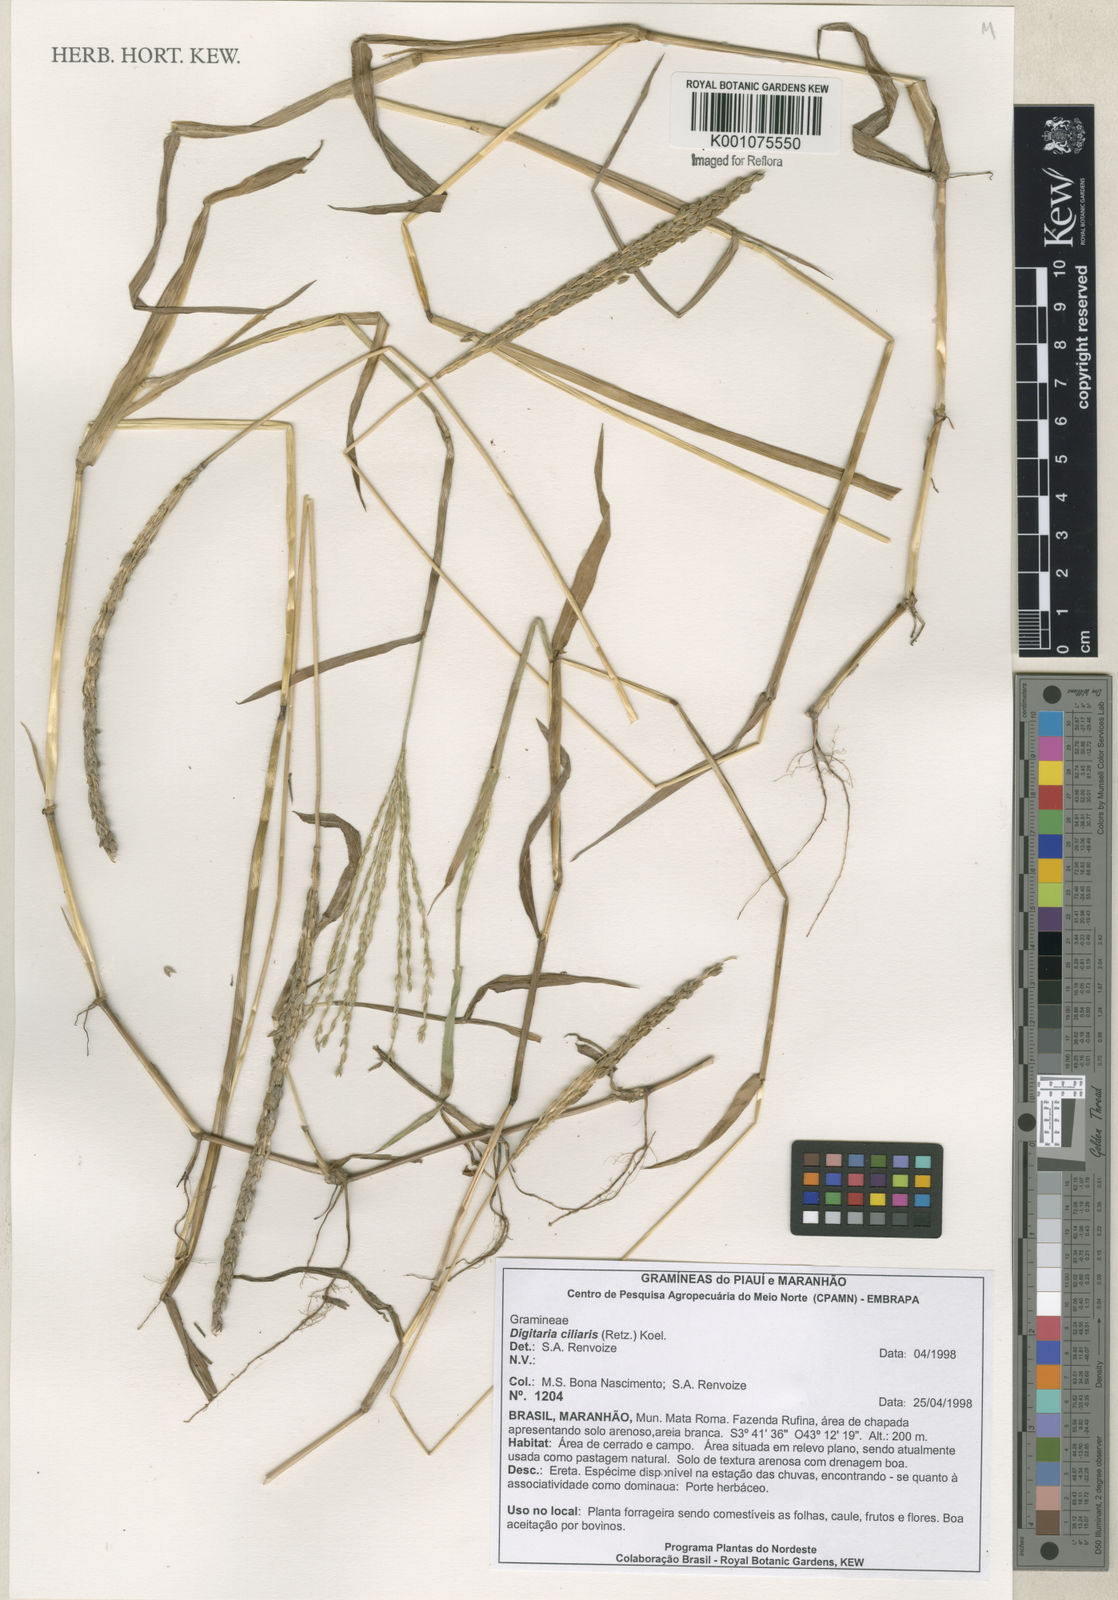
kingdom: Plantae
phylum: Tracheophyta
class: Liliopsida
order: Poales
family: Poaceae
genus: Digitaria
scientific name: Digitaria ciliaris
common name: Tropical finger-grass
